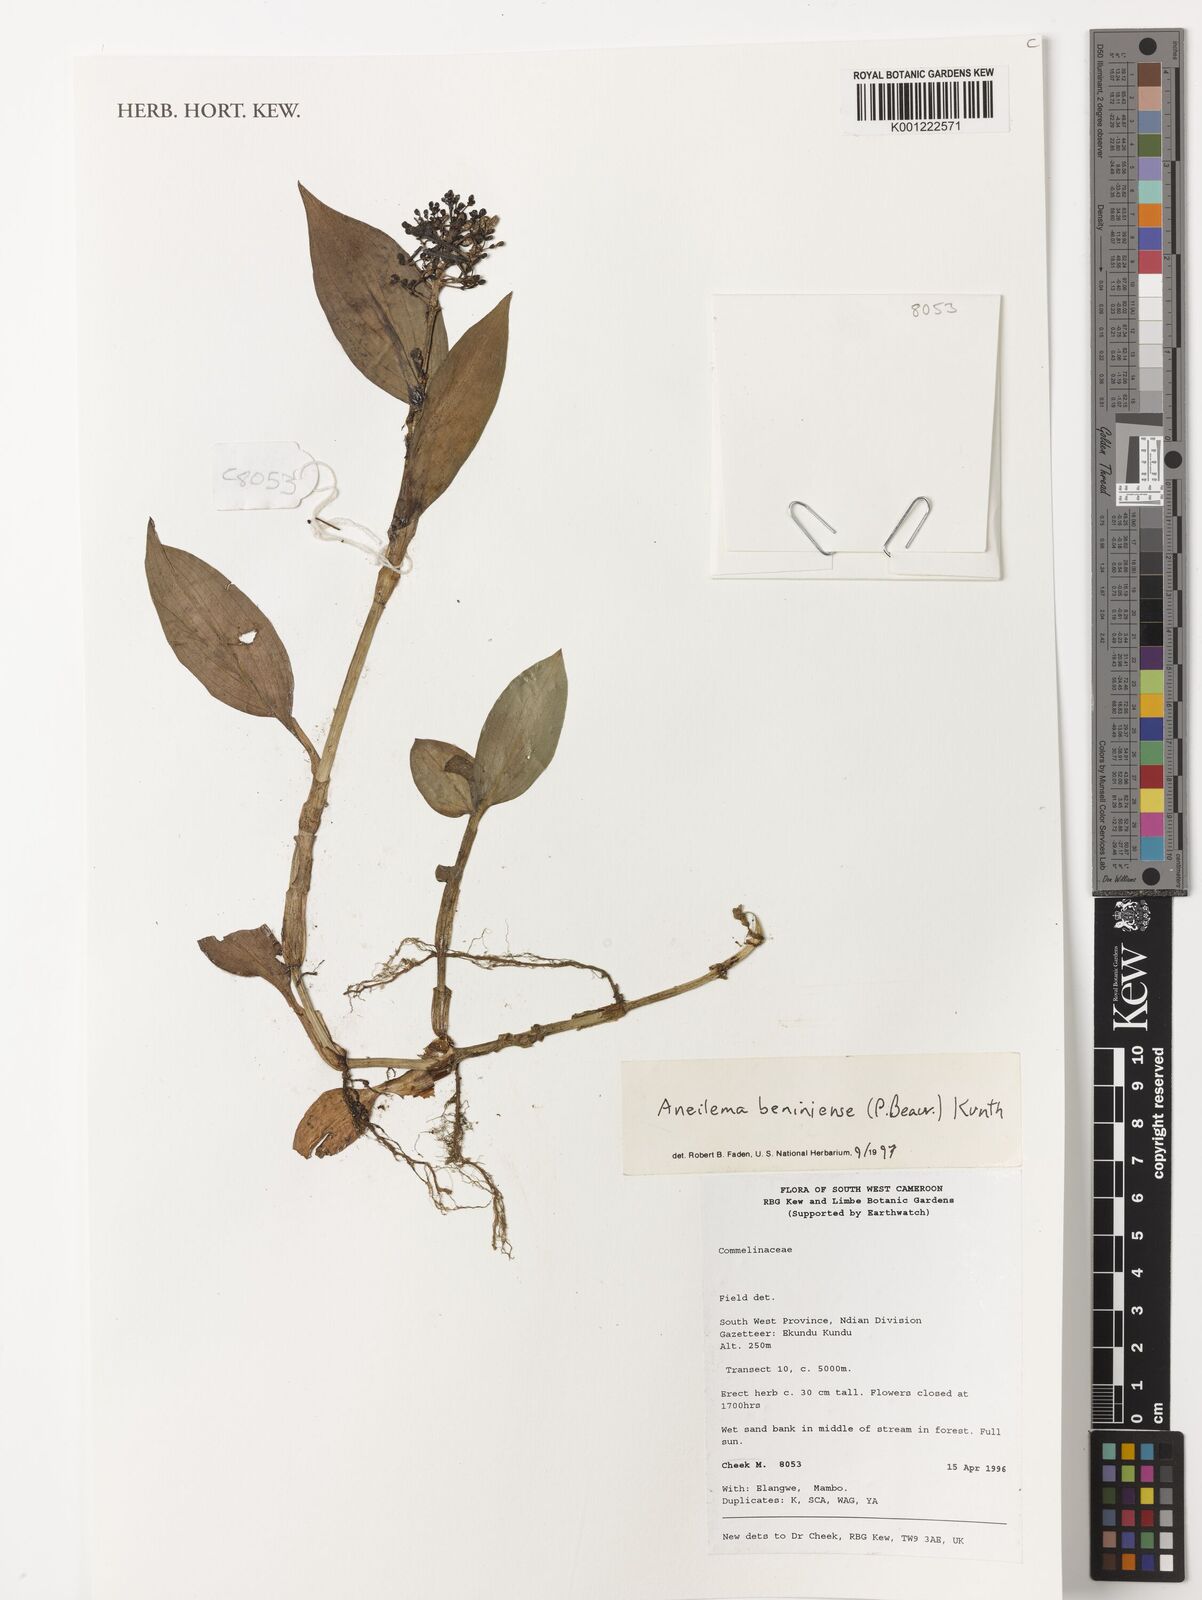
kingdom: Plantae
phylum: Tracheophyta
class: Liliopsida
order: Commelinales
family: Commelinaceae
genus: Aneilema
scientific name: Aneilema beniniense
